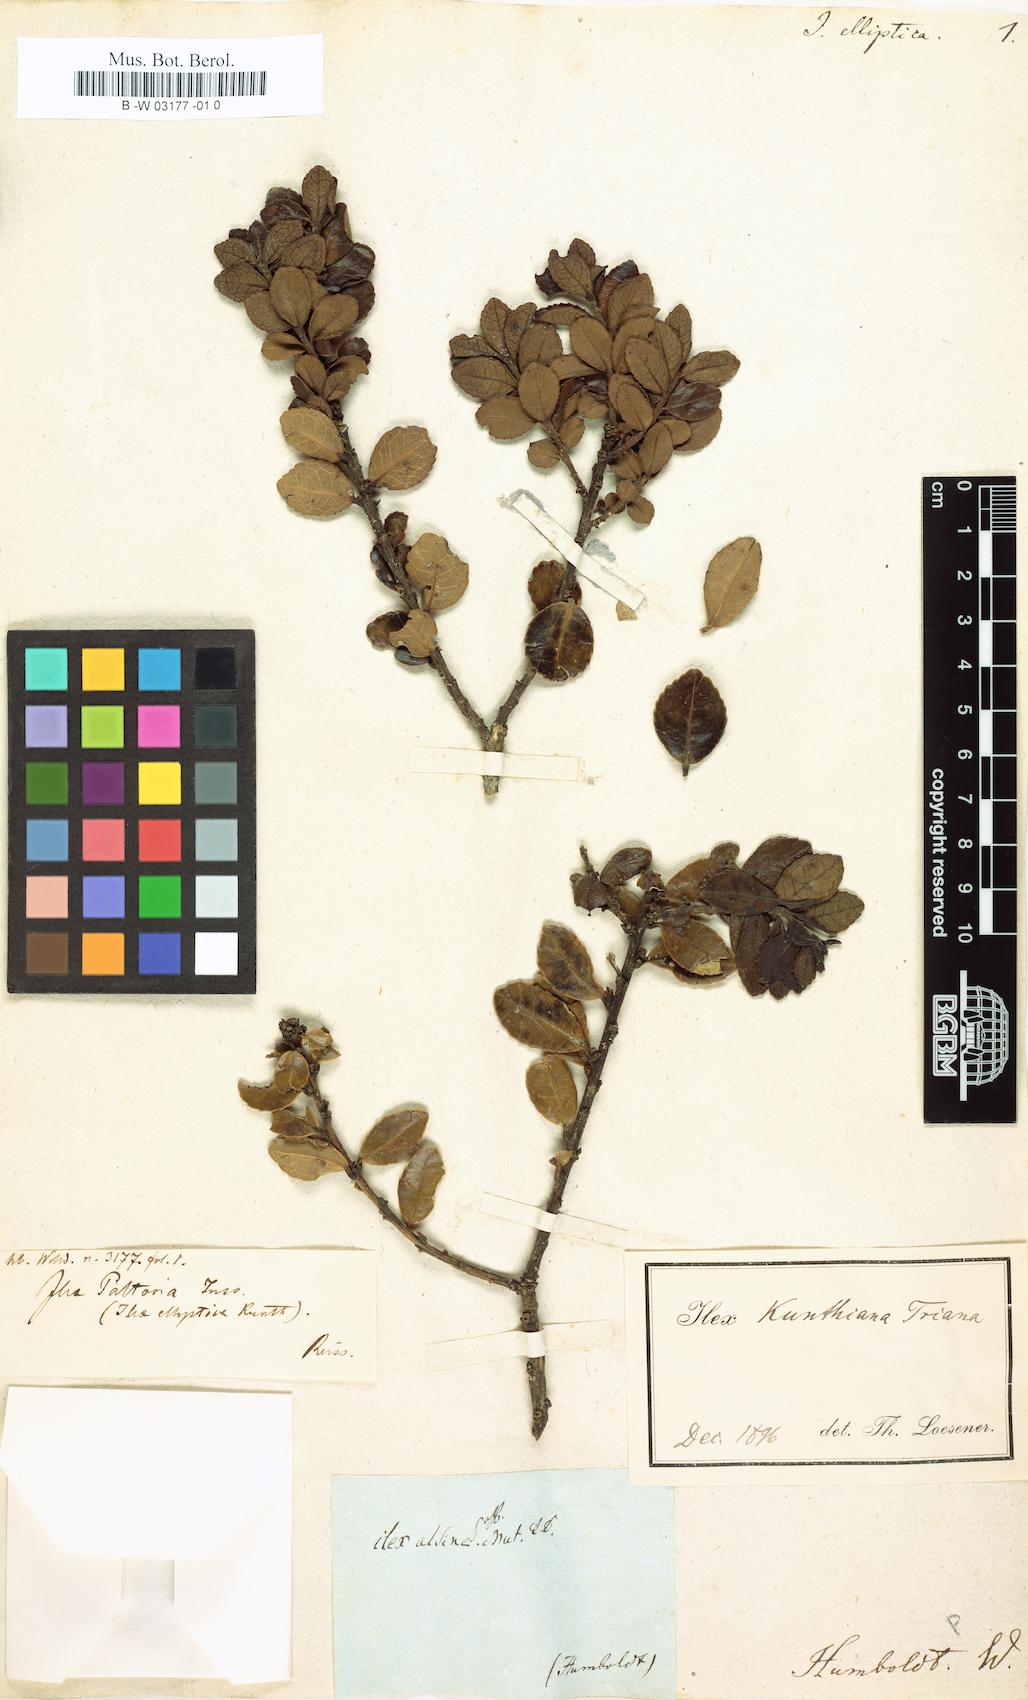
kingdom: Plantae
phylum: Tracheophyta
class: Magnoliopsida
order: Aquifoliales
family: Aquifoliaceae
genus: Ilex
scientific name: Ilex elliptica
